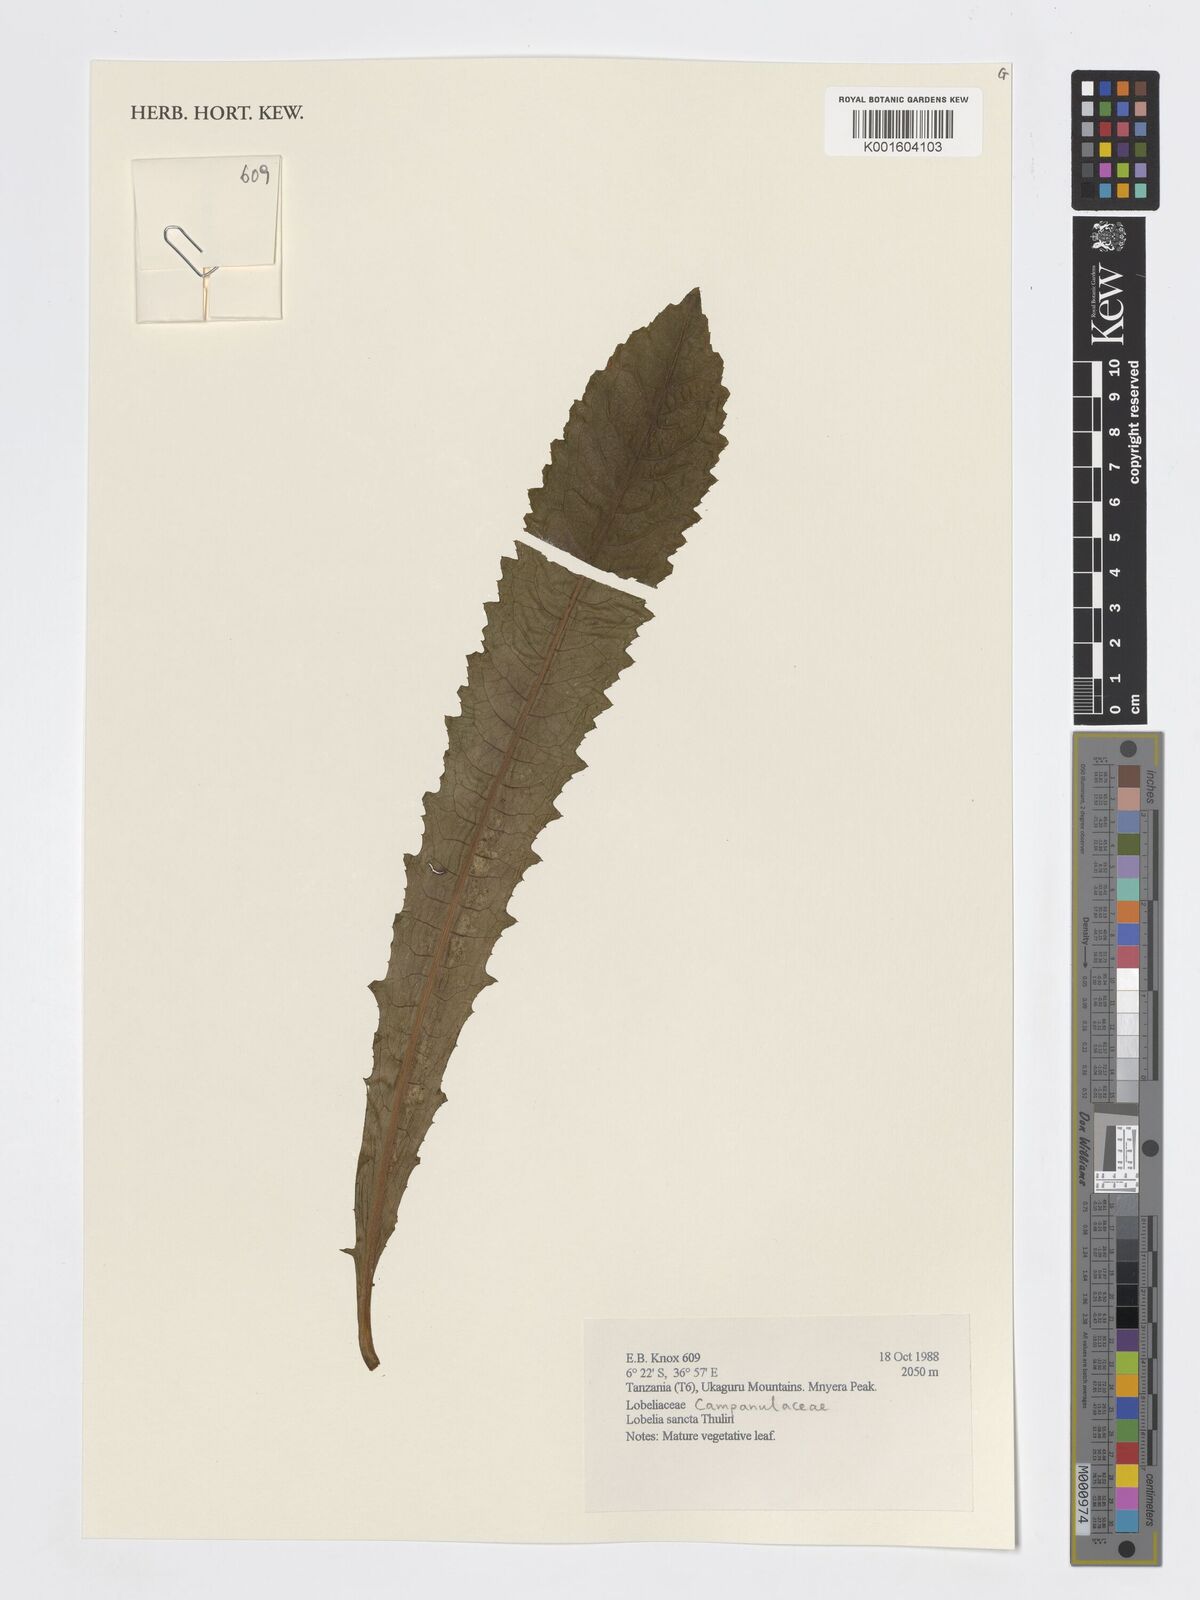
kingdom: Plantae
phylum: Tracheophyta
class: Magnoliopsida
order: Asterales
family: Campanulaceae
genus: Lobelia
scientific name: Lobelia sancta
